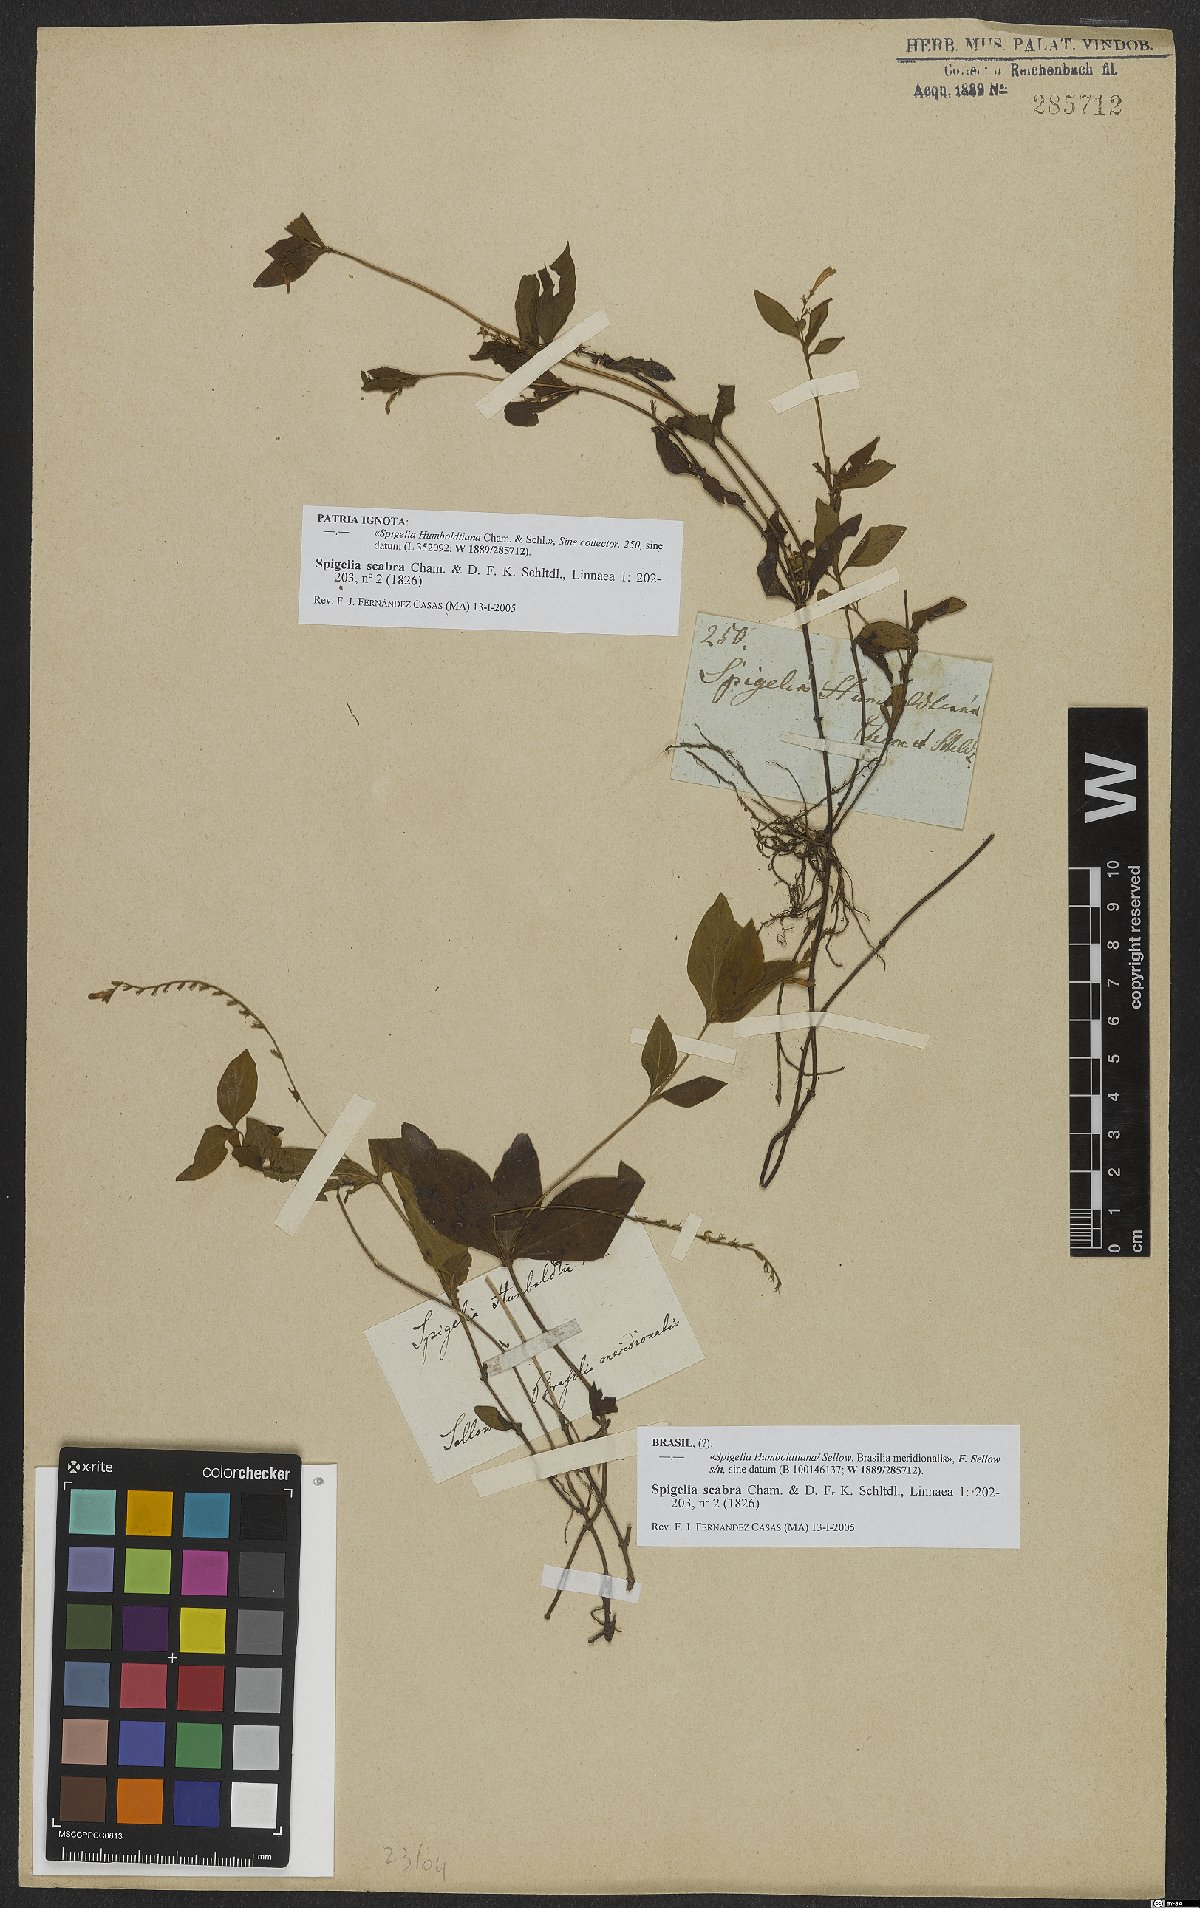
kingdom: Plantae
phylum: Tracheophyta
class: Magnoliopsida
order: Gentianales
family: Loganiaceae
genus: Spigelia
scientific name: Spigelia humboldtiana
